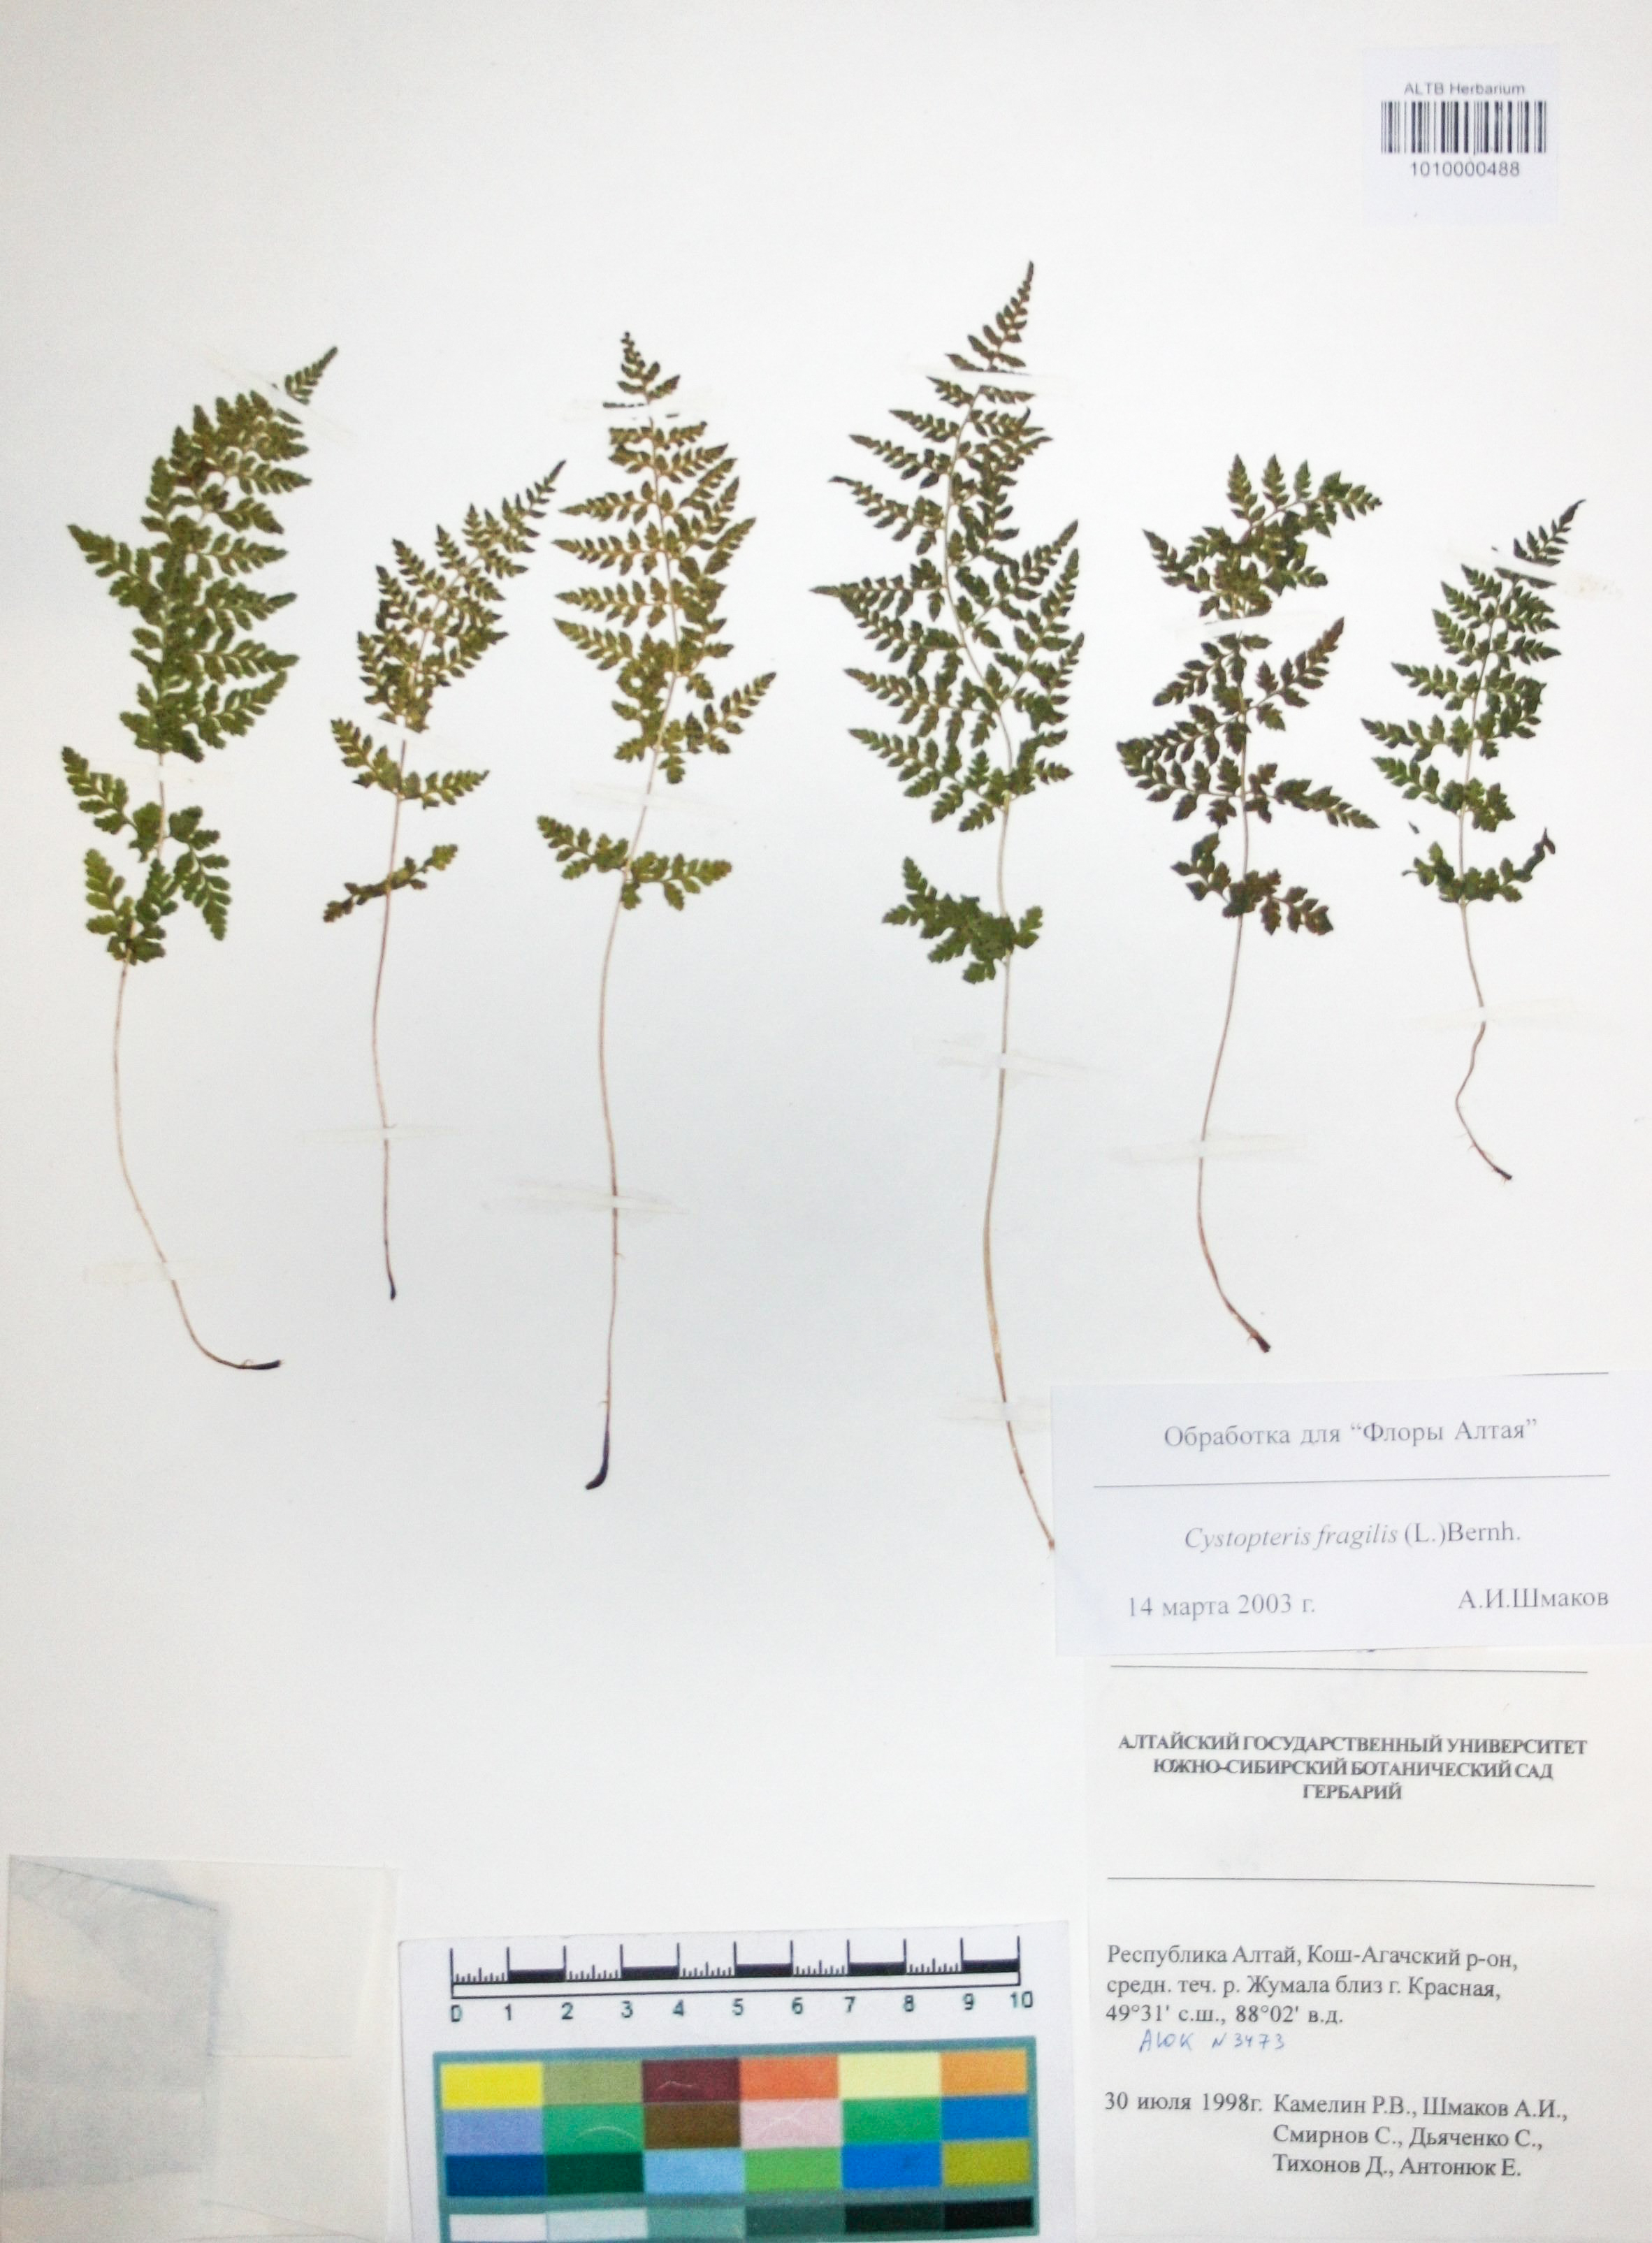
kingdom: Plantae
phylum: Tracheophyta
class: Polypodiopsida
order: Polypodiales
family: Cystopteridaceae
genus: Cystopteris
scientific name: Cystopteris fragilis
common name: Brittle bladder fern
